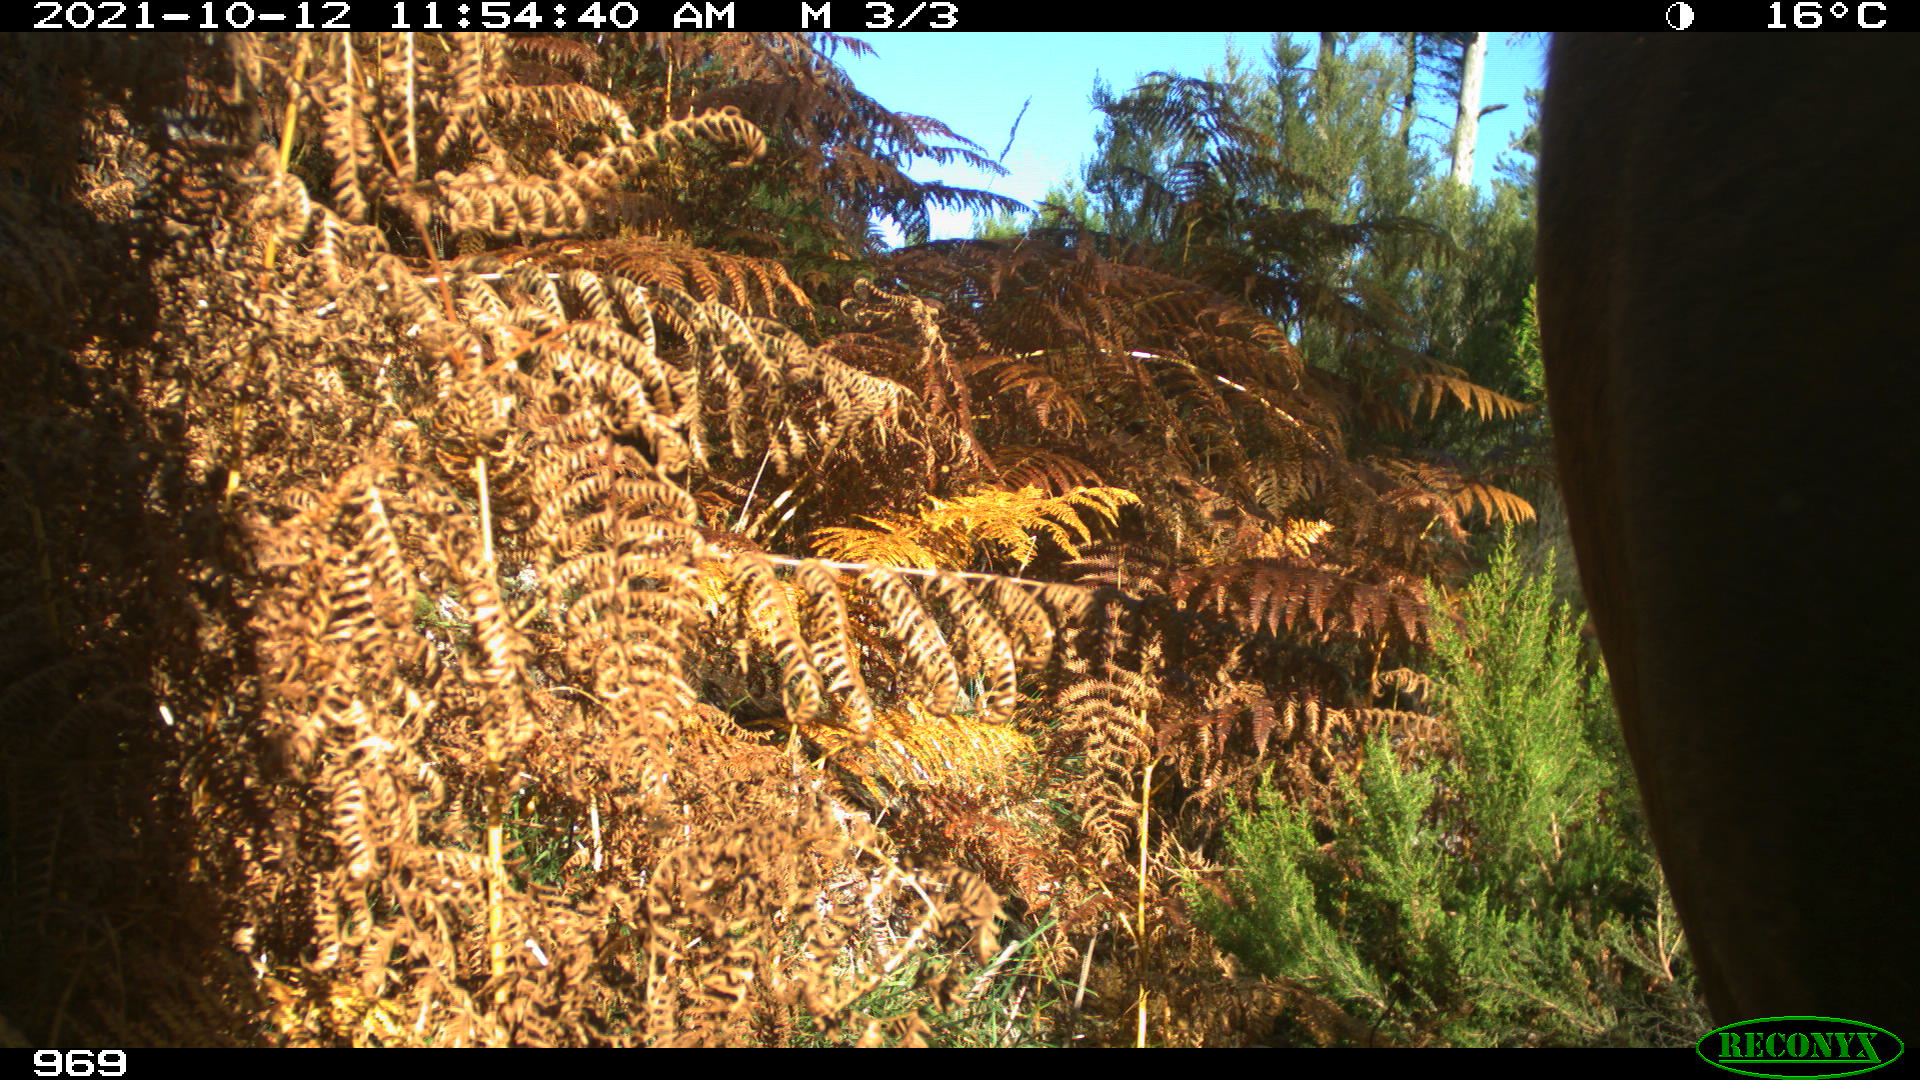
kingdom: Animalia
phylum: Chordata
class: Mammalia
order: Artiodactyla
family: Bovidae
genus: Bos
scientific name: Bos taurus
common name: Domesticated cattle
